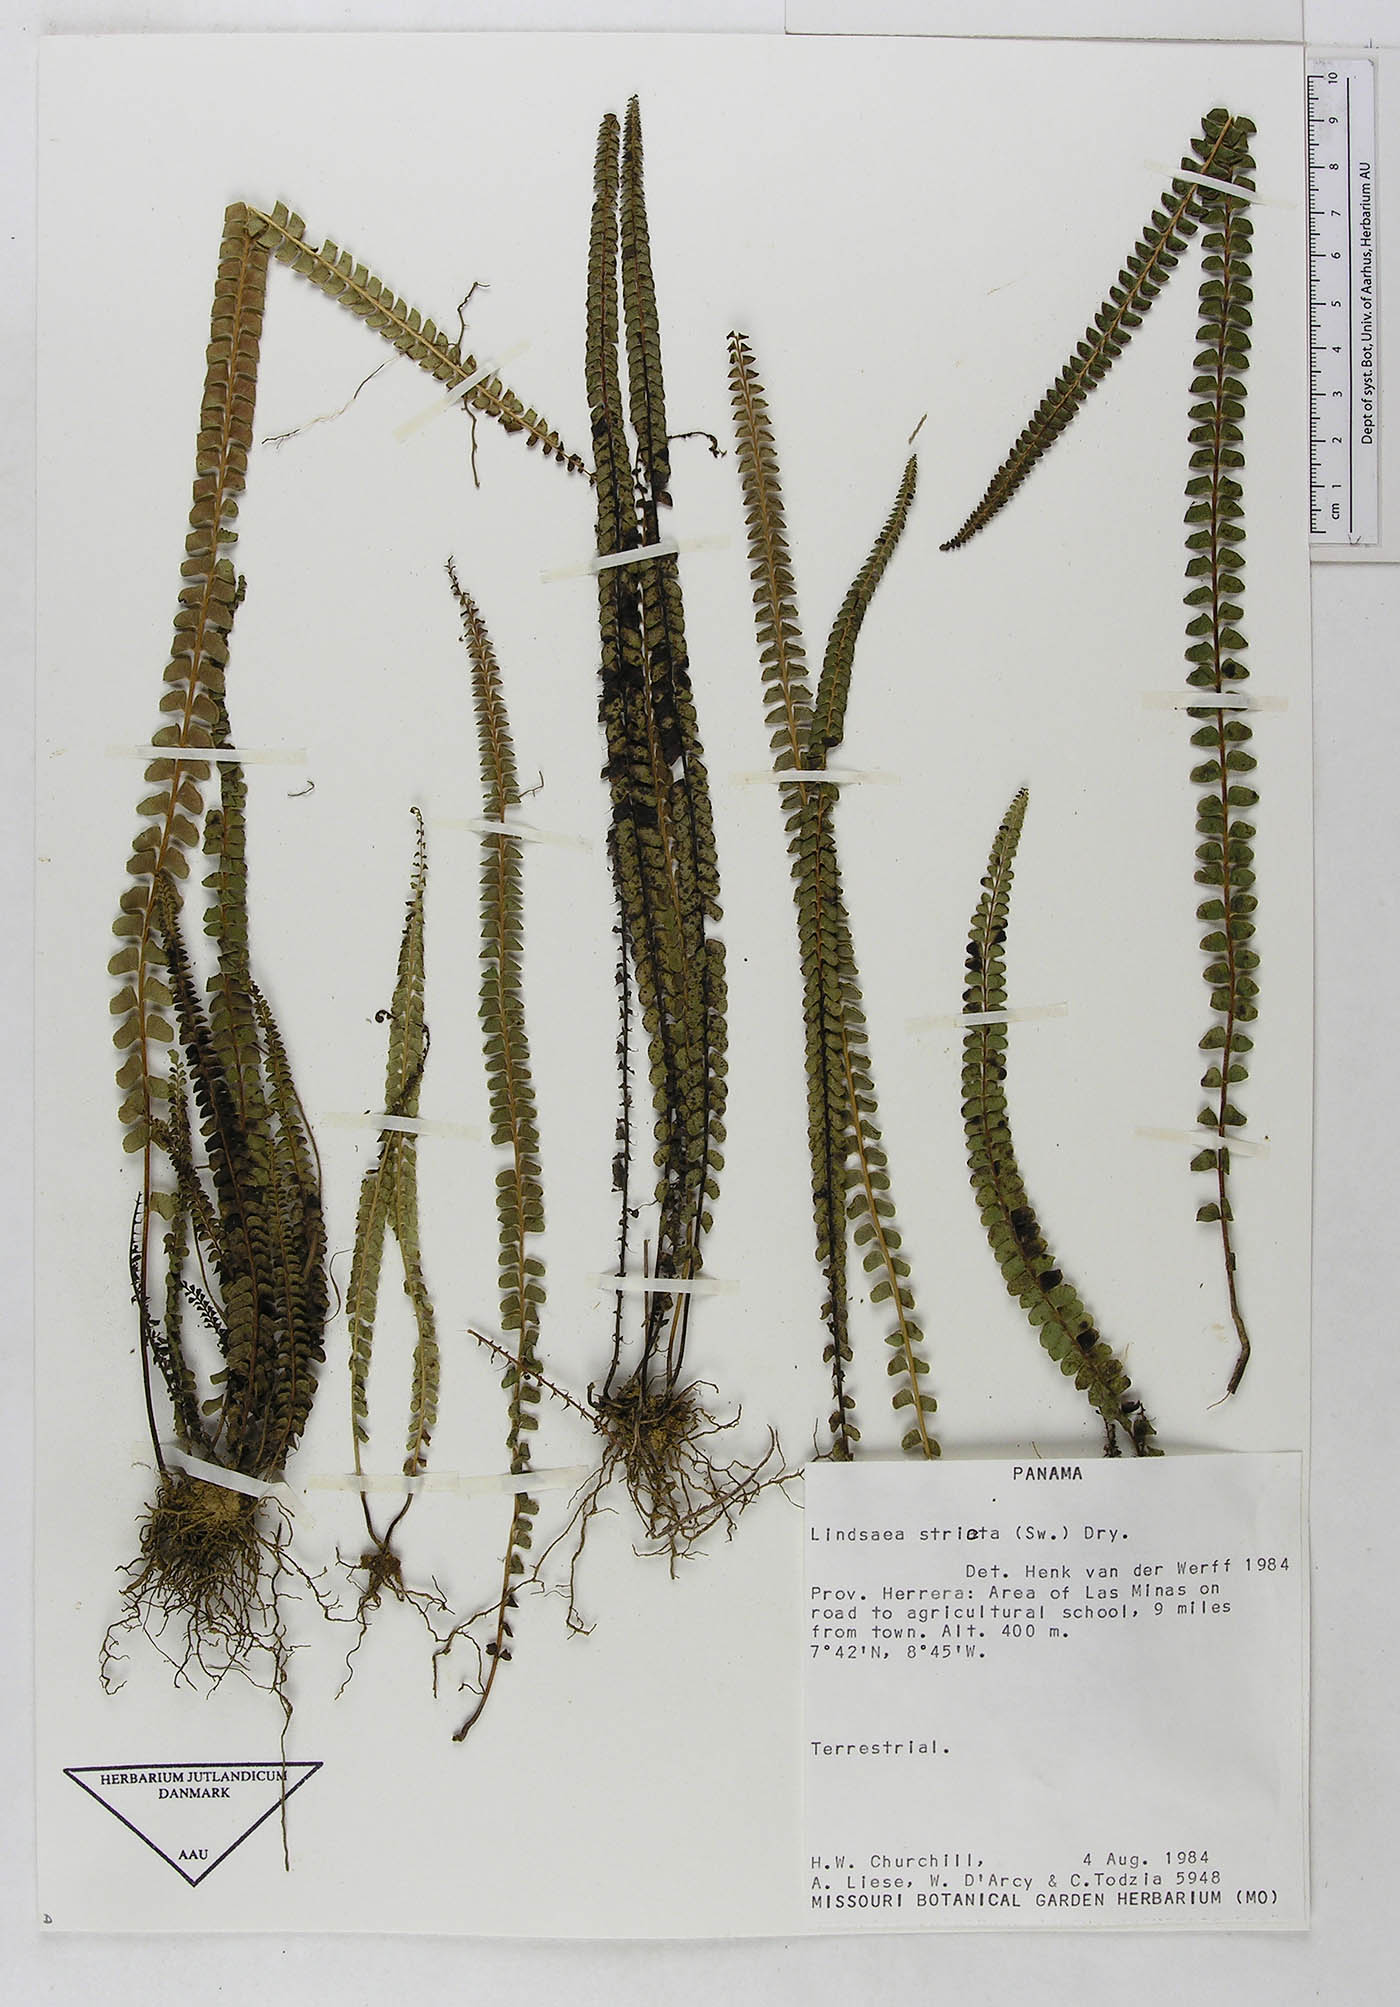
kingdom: Plantae
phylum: Tracheophyta
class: Polypodiopsida
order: Polypodiales
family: Lindsaeaceae
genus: Lindsaea
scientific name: Lindsaea stricta
